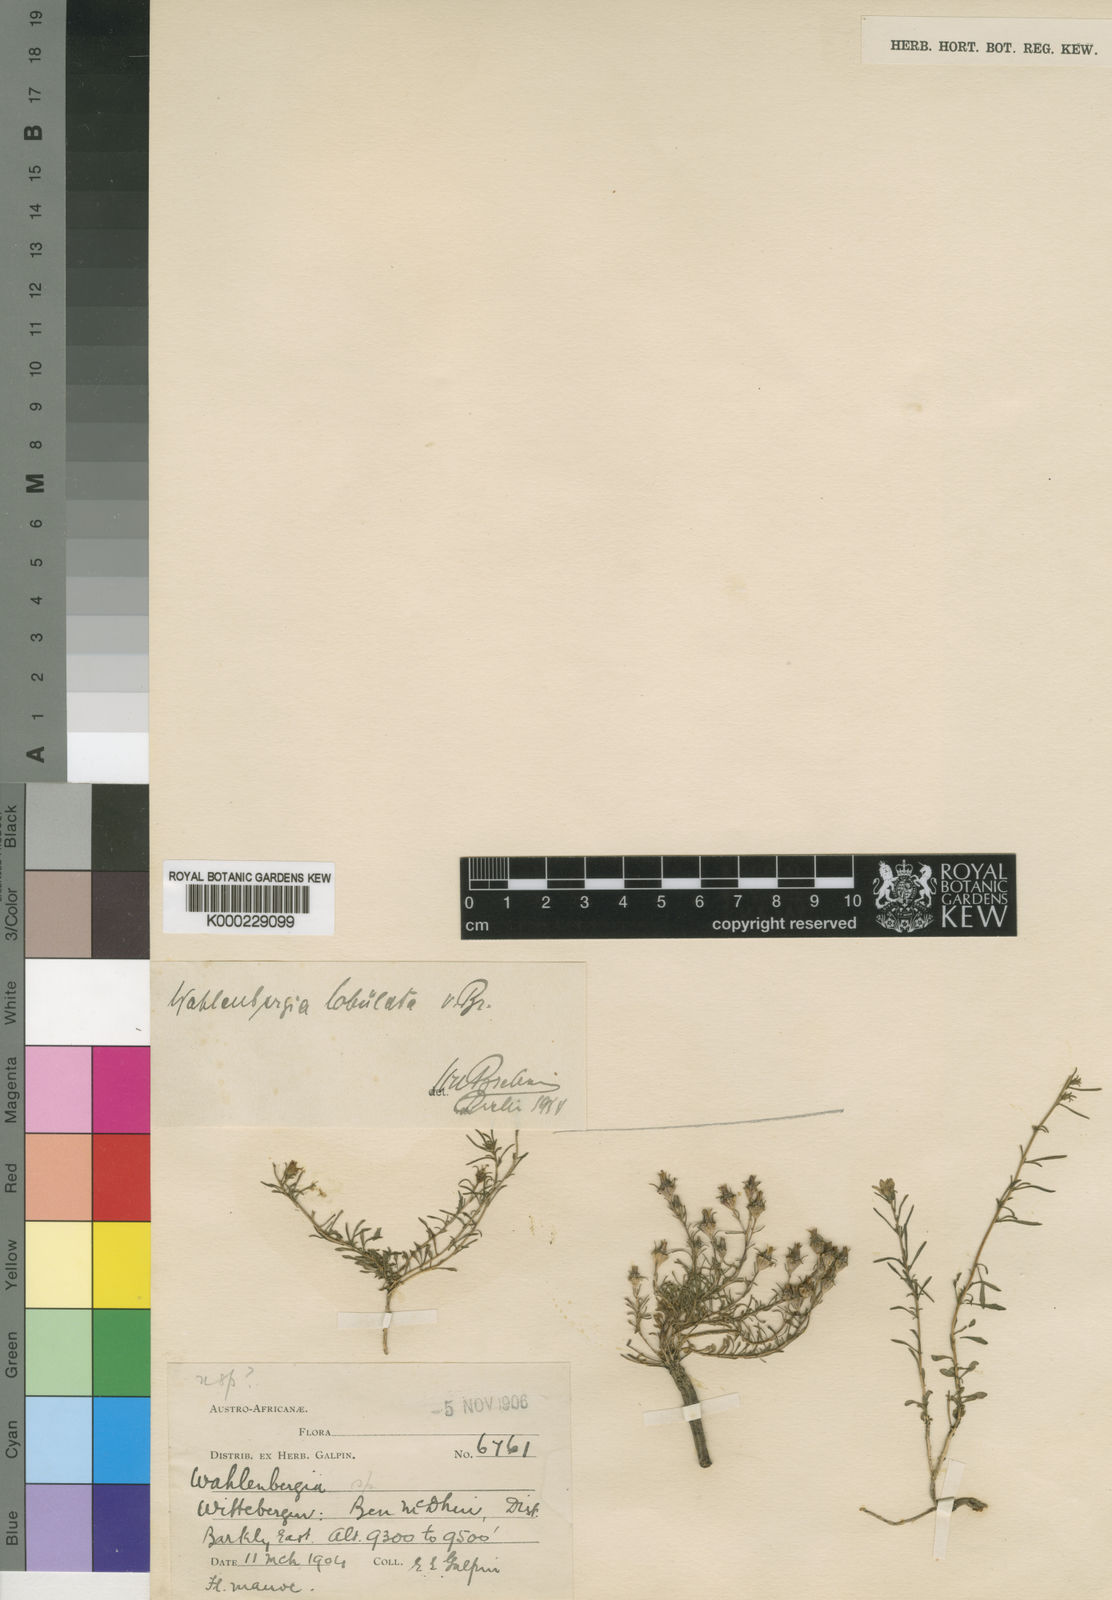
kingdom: Plantae
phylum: Tracheophyta
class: Magnoliopsida
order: Asterales
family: Campanulaceae
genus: Wahlenbergia
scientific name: Wahlenbergia lobulata
